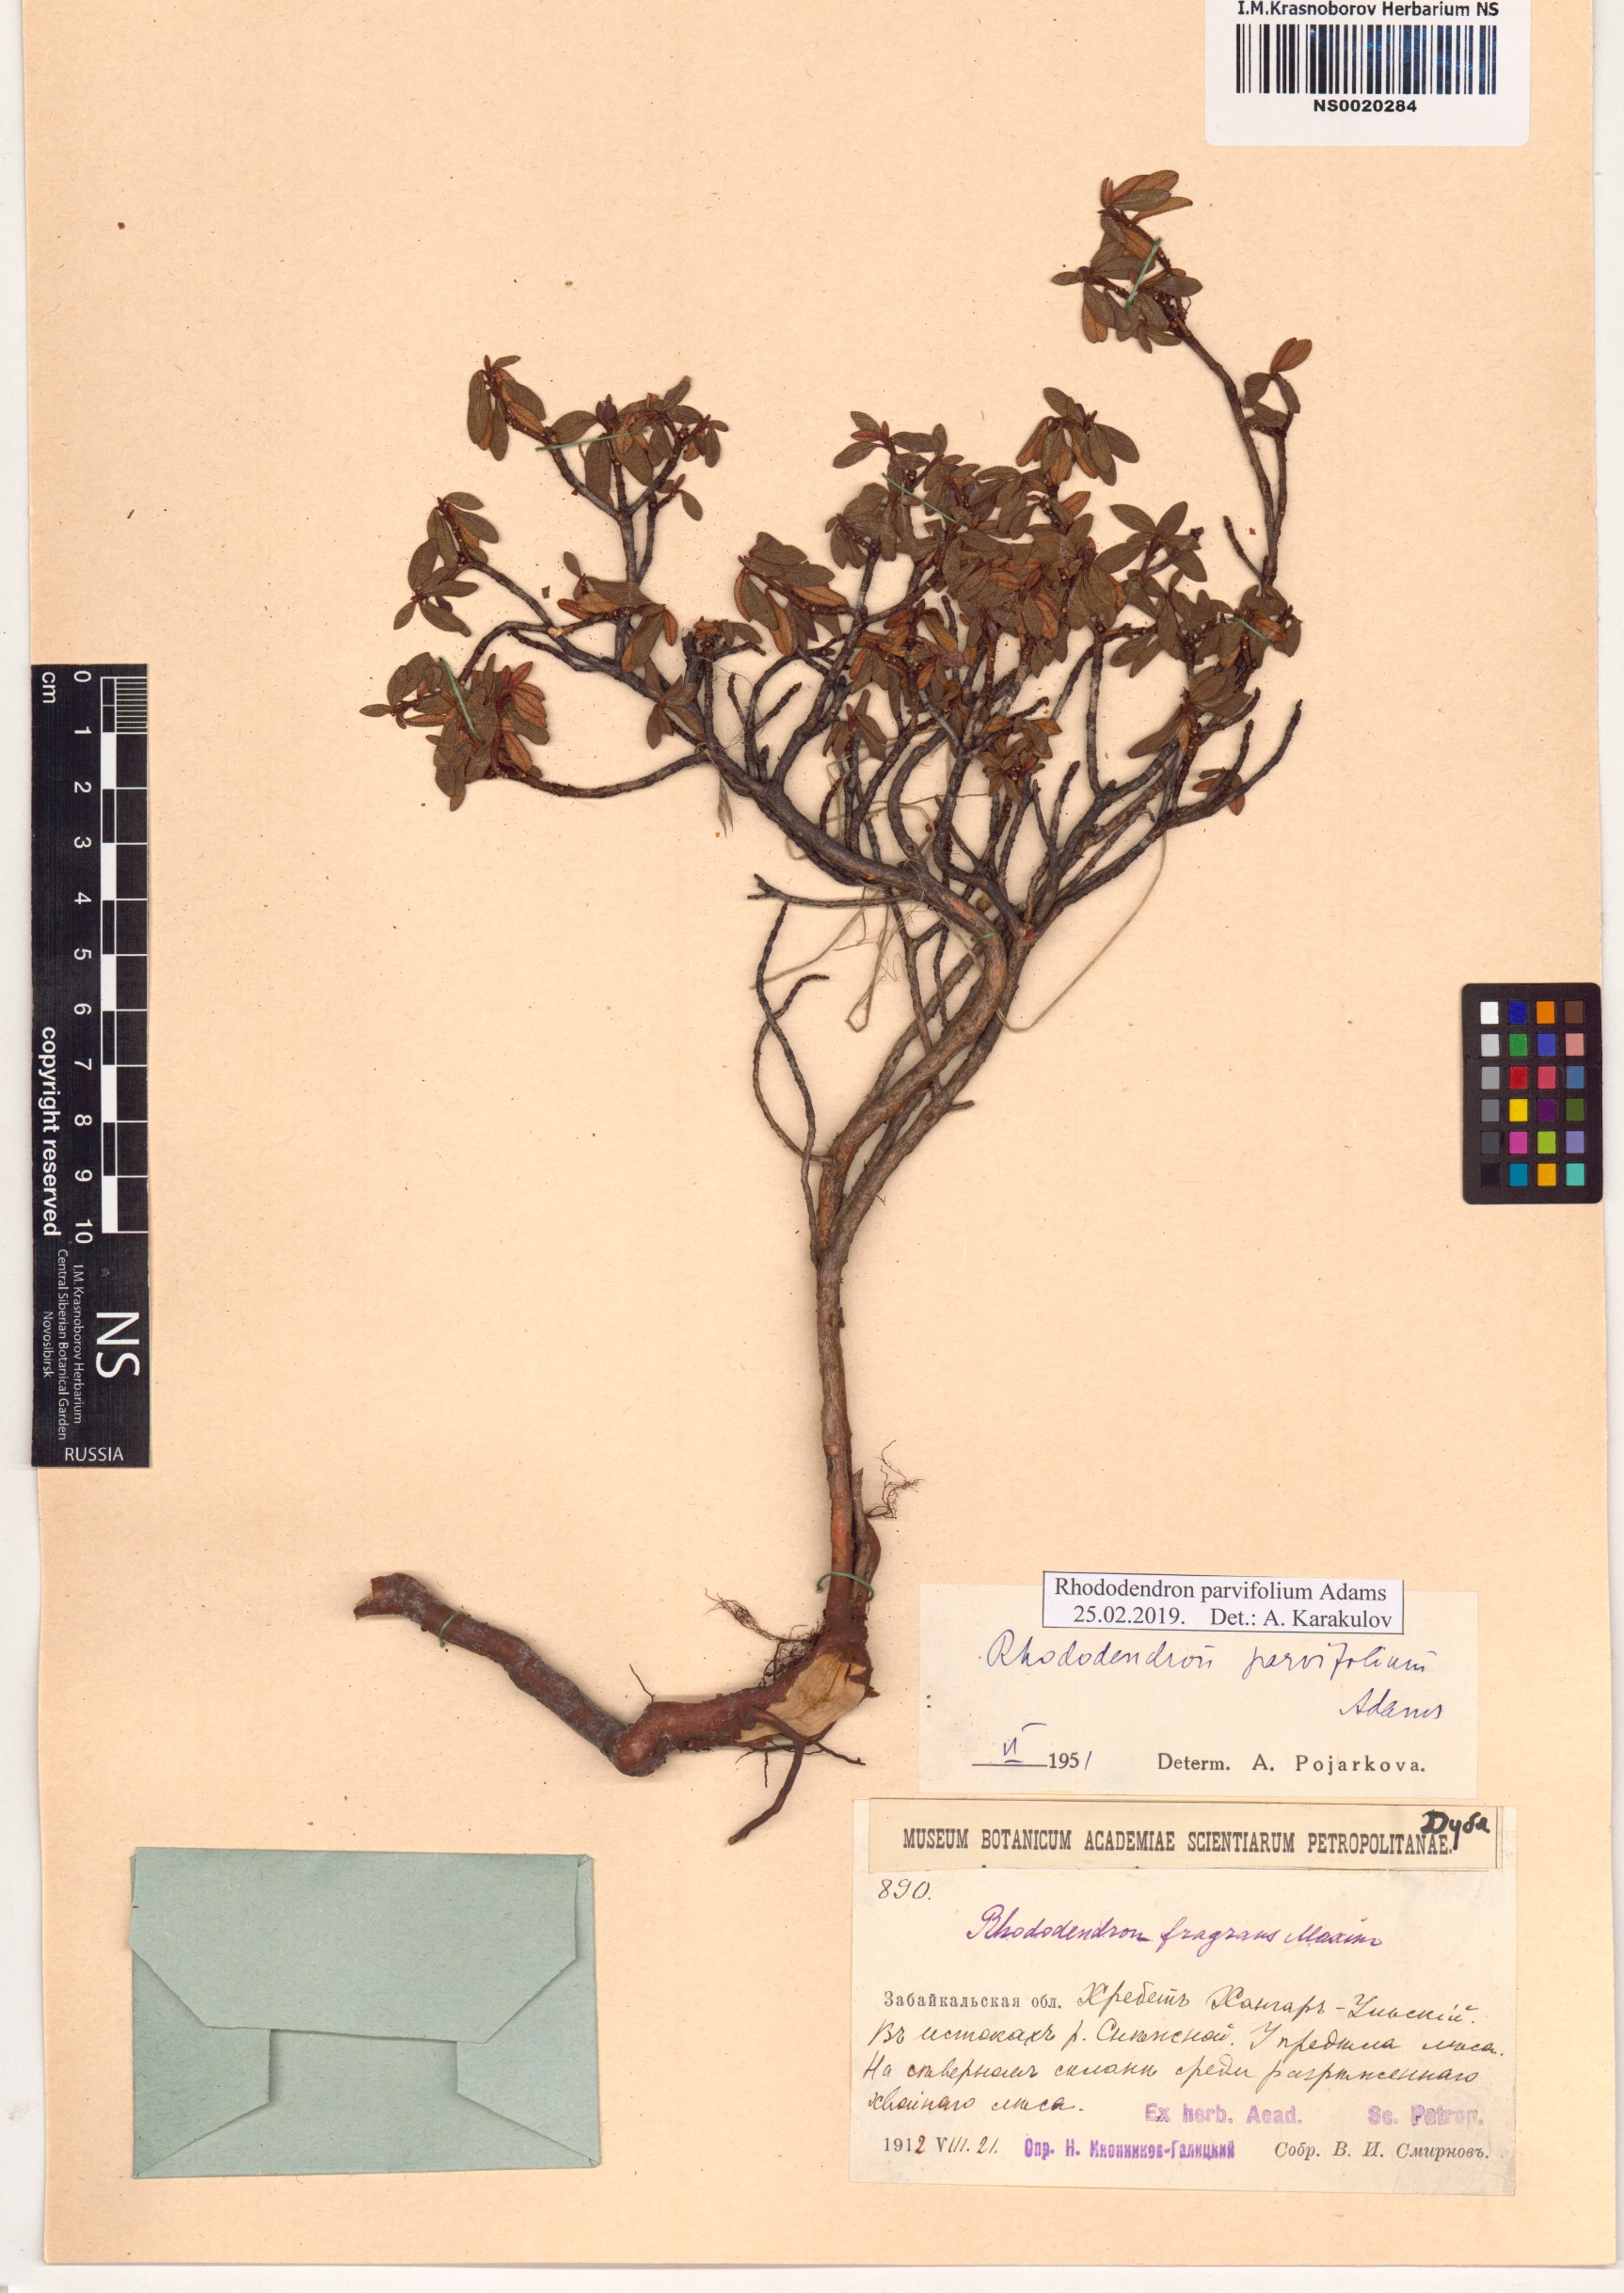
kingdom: Plantae
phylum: Tracheophyta
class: Magnoliopsida
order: Ericales
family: Ericaceae
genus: Rhododendron
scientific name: Rhododendron parvifolium
